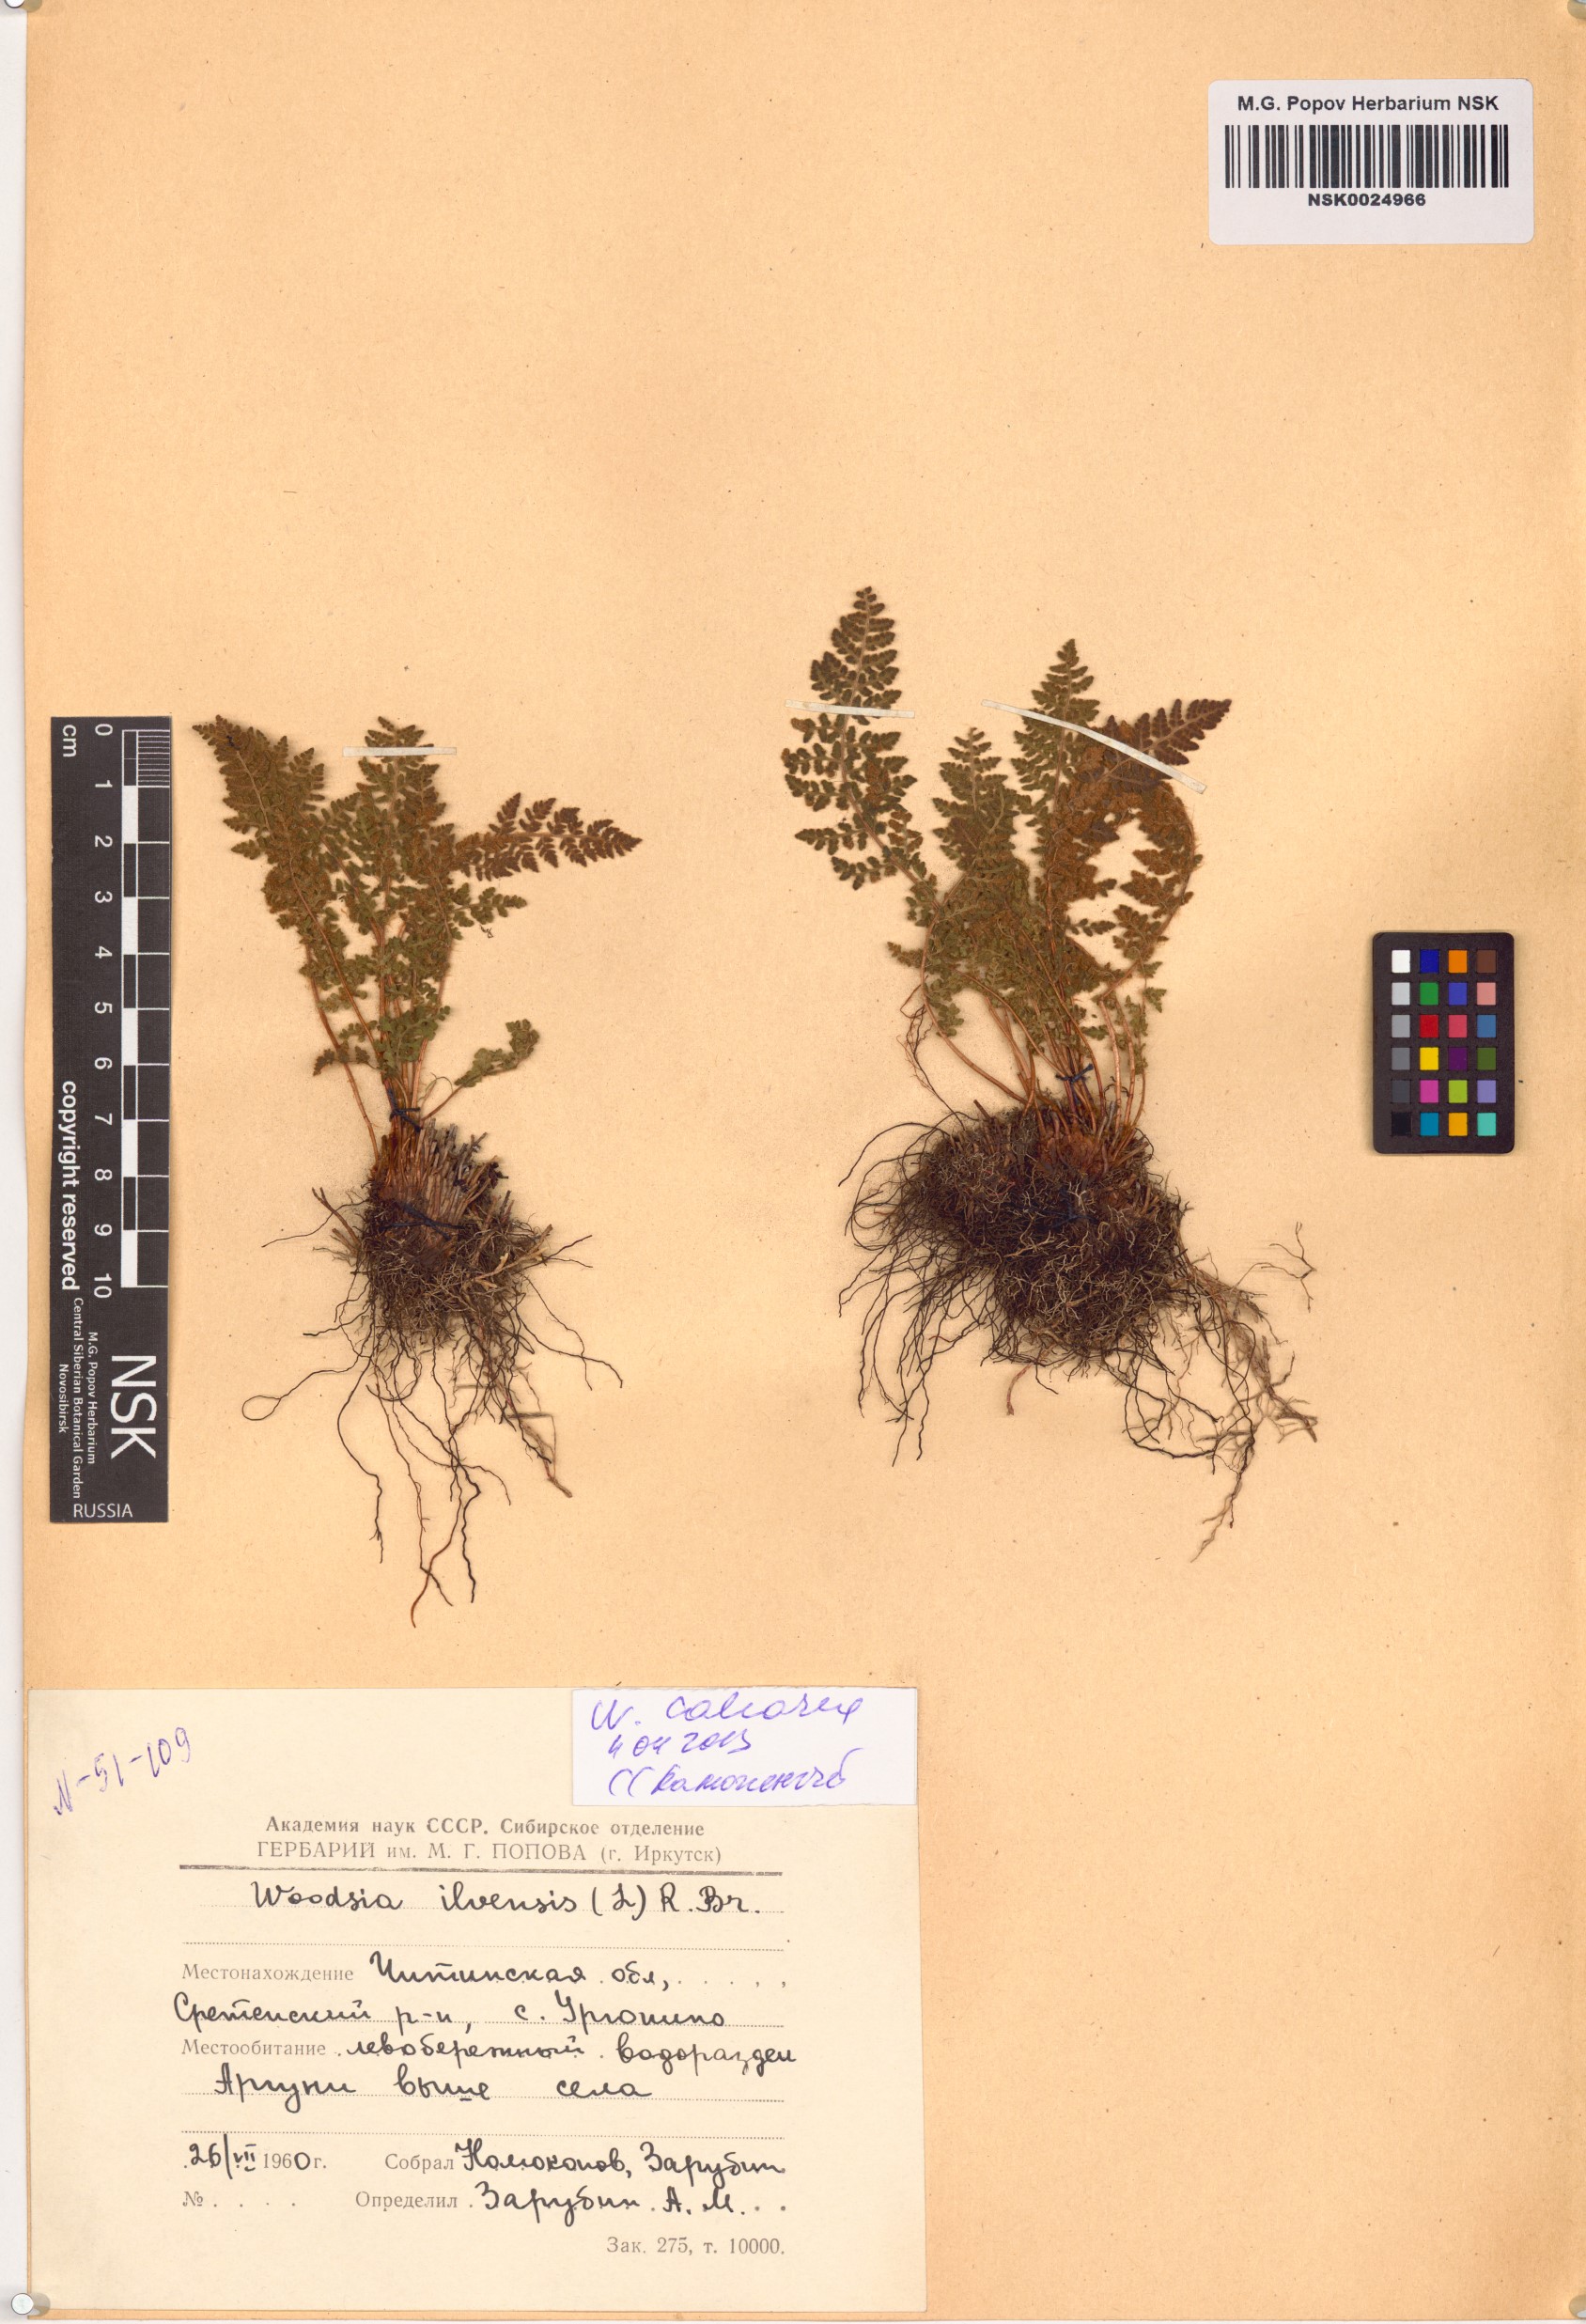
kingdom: Plantae
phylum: Tracheophyta
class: Polypodiopsida
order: Polypodiales
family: Woodsiaceae
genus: Woodsia
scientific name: Woodsia calcarea
